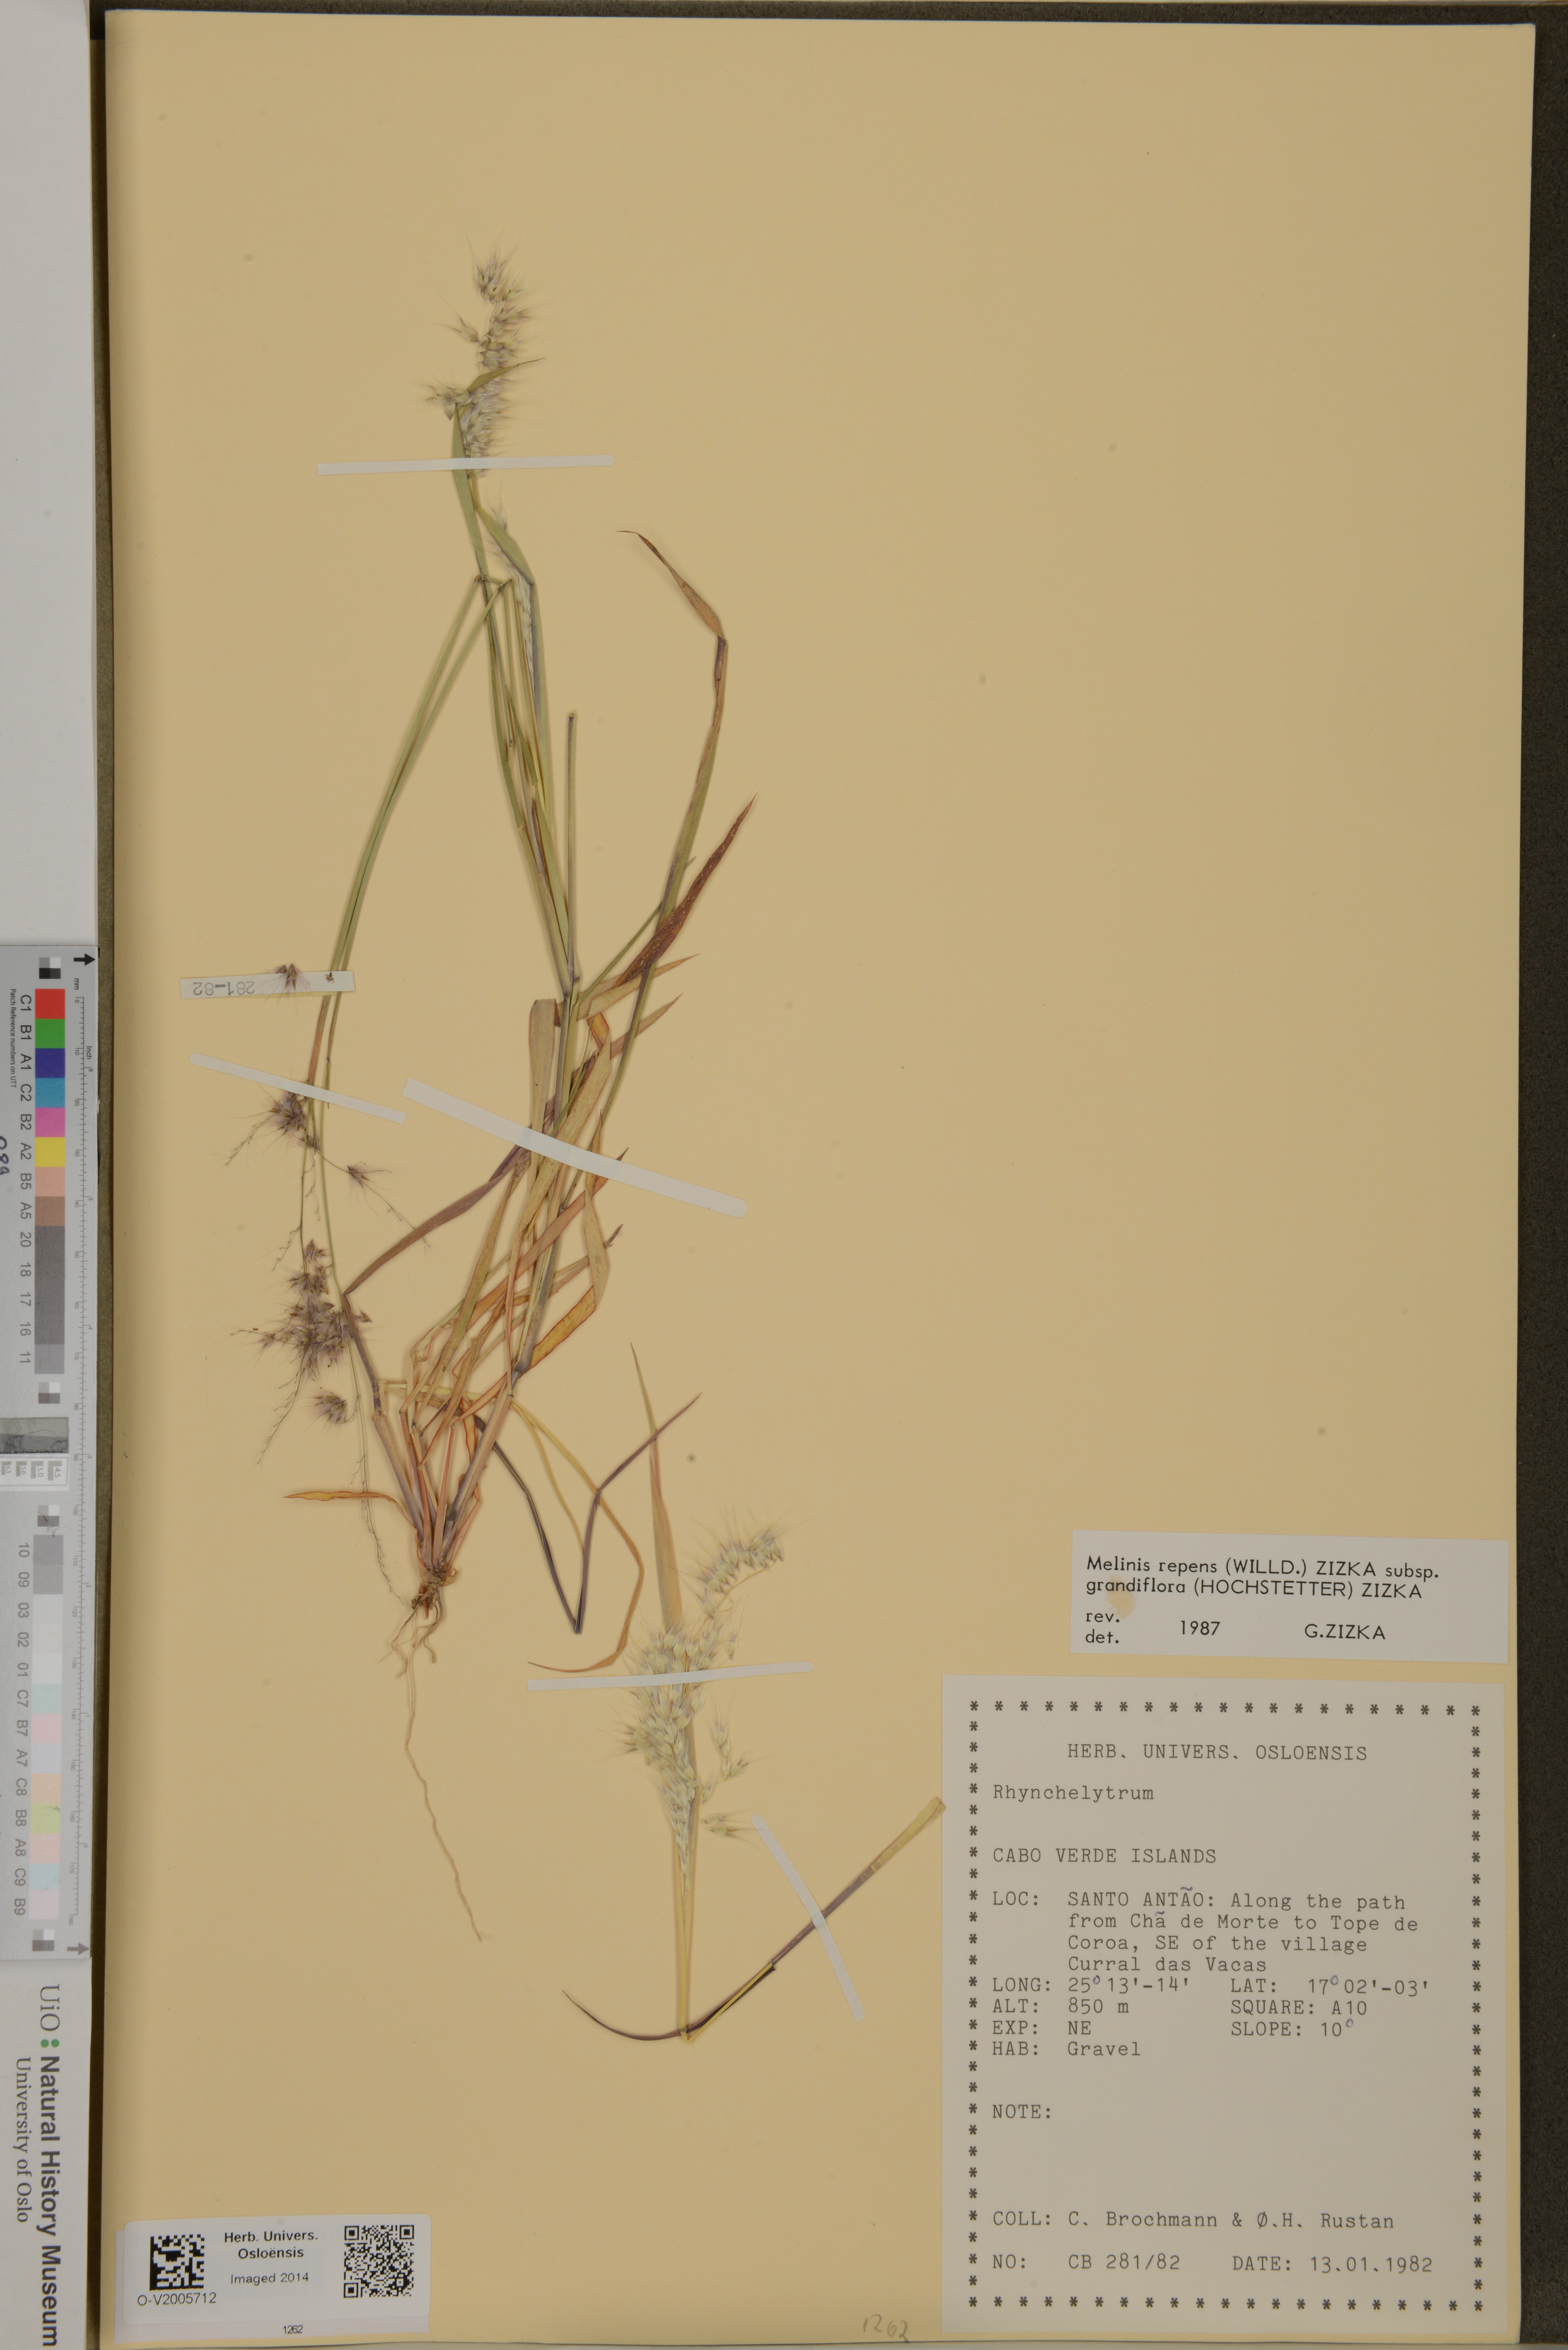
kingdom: Plantae
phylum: Tracheophyta
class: Liliopsida
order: Poales
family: Poaceae
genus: Melinis
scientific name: Melinis repens
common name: Rose natal grass
